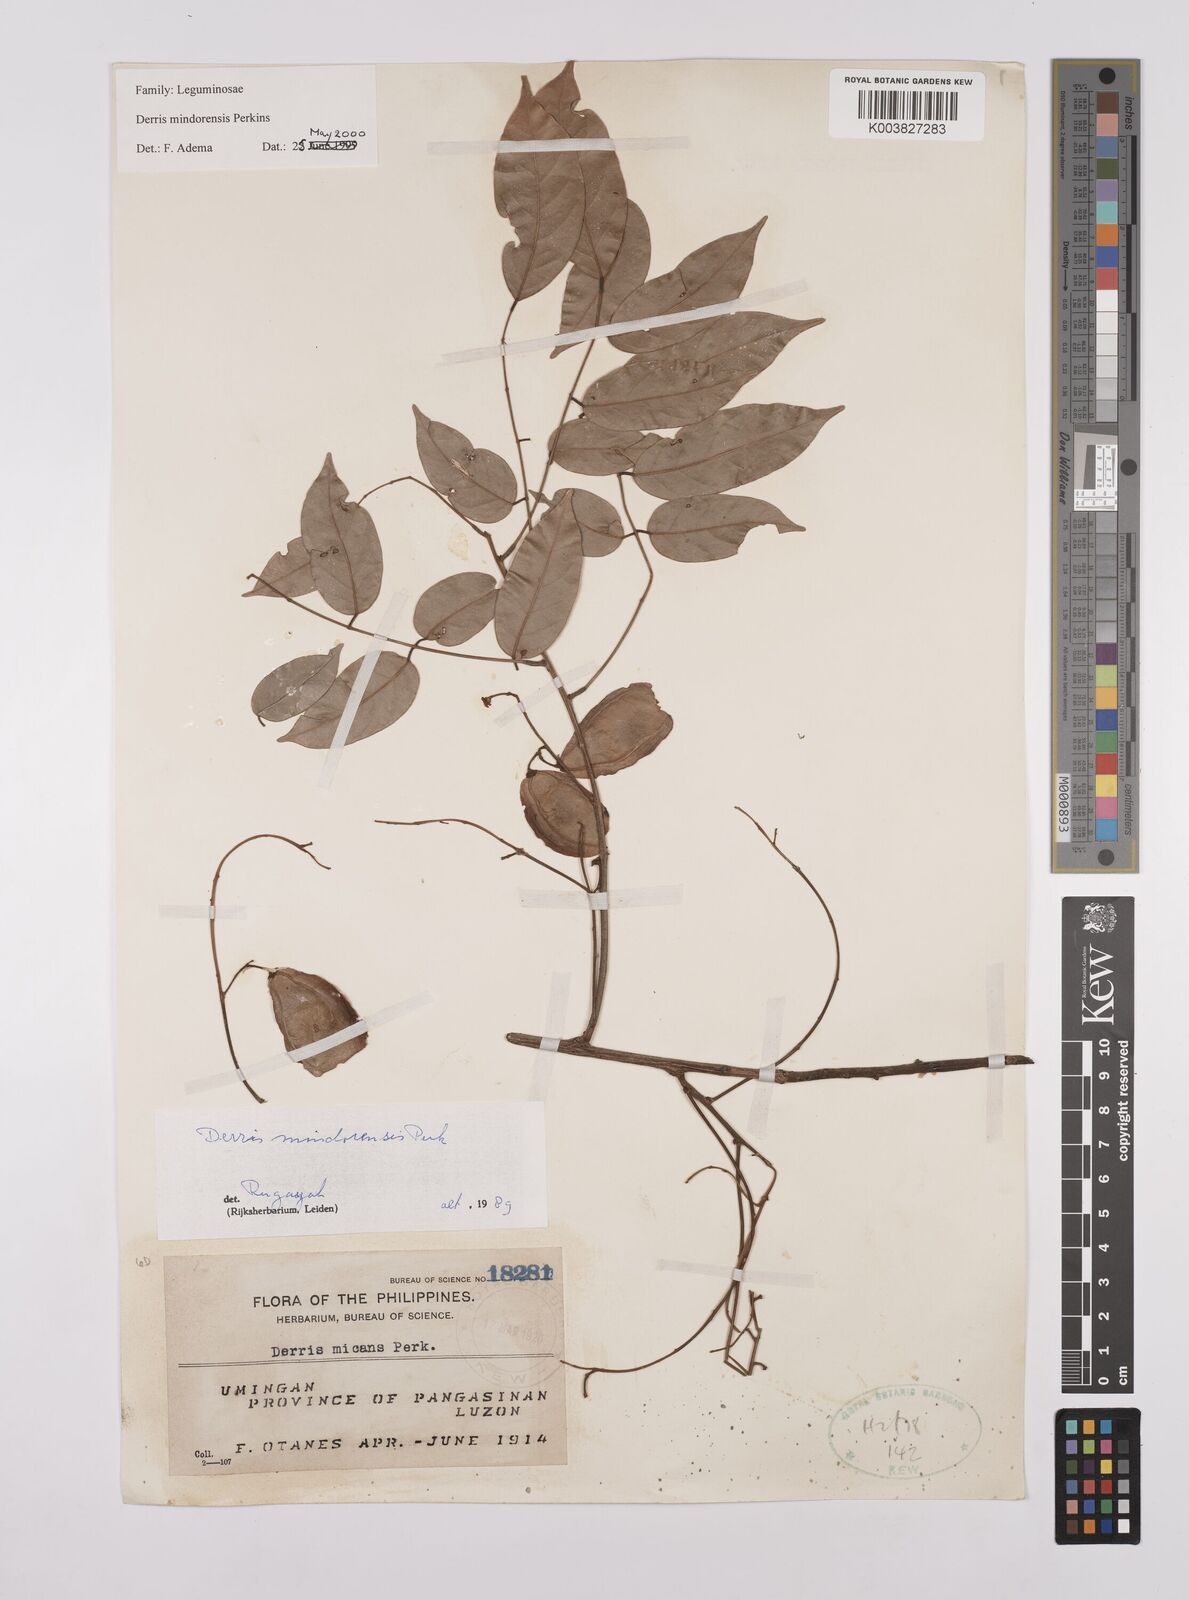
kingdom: Plantae
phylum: Tracheophyta
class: Magnoliopsida
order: Fabales
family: Fabaceae
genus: Derris
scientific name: Derris pubipetala
